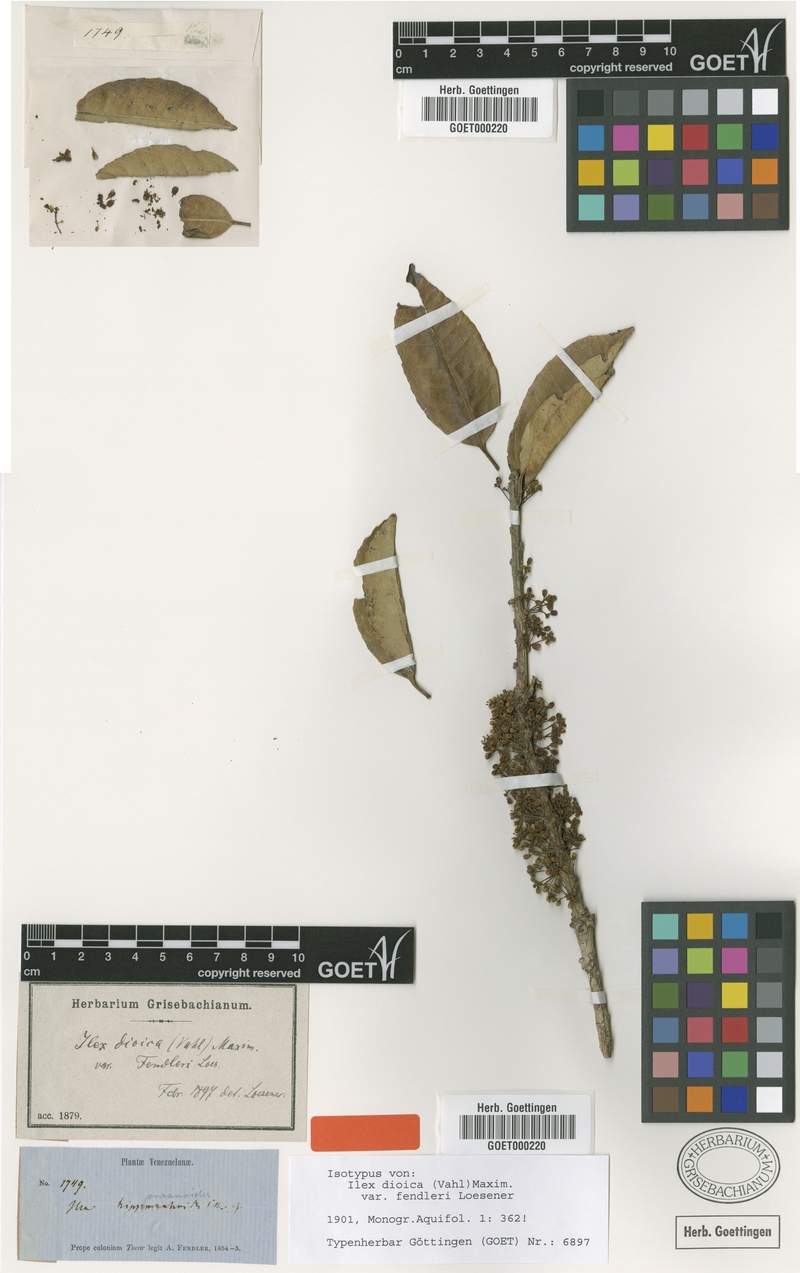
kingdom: Plantae
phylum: Tracheophyta
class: Magnoliopsida
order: Aquifoliales
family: Aquifoliaceae
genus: Ilex
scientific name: Ilex julianii
